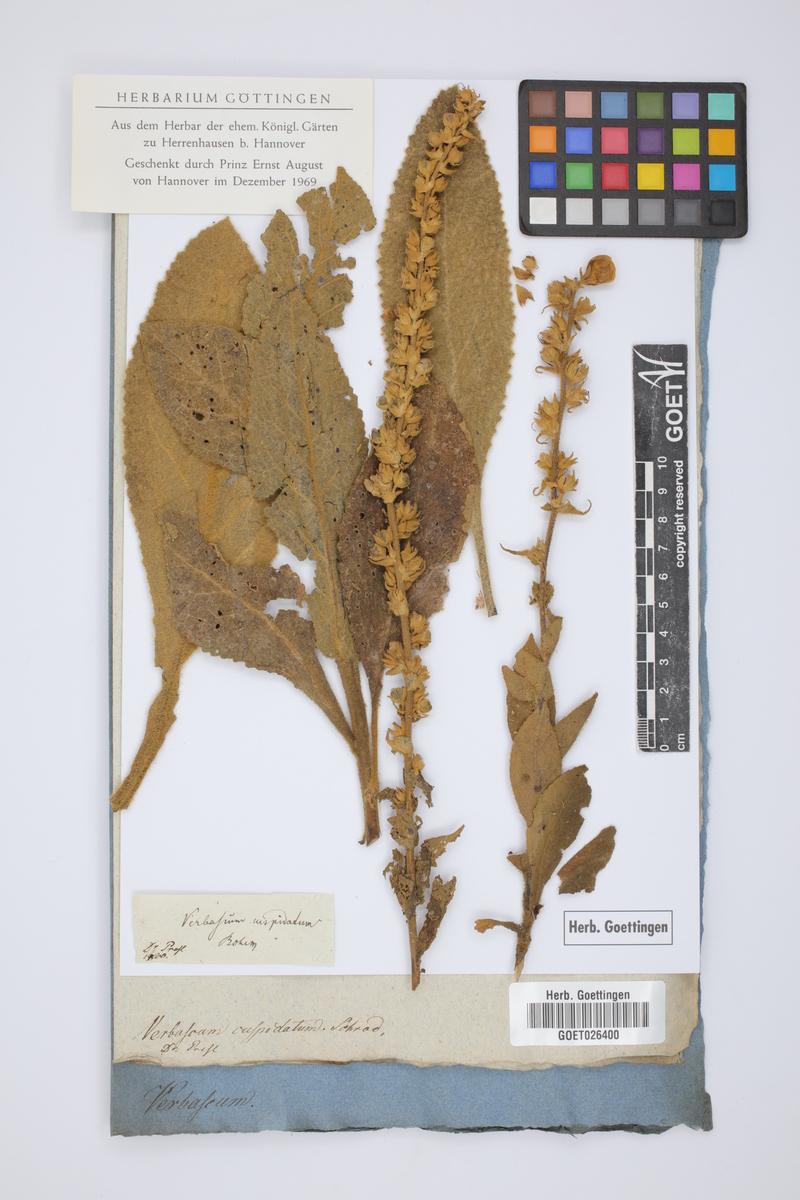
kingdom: Plantae
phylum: Tracheophyta
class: Magnoliopsida
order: Lamiales
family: Scrophulariaceae
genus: Verbascum
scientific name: Verbascum densiflorum
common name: Dense-flowered mullein
